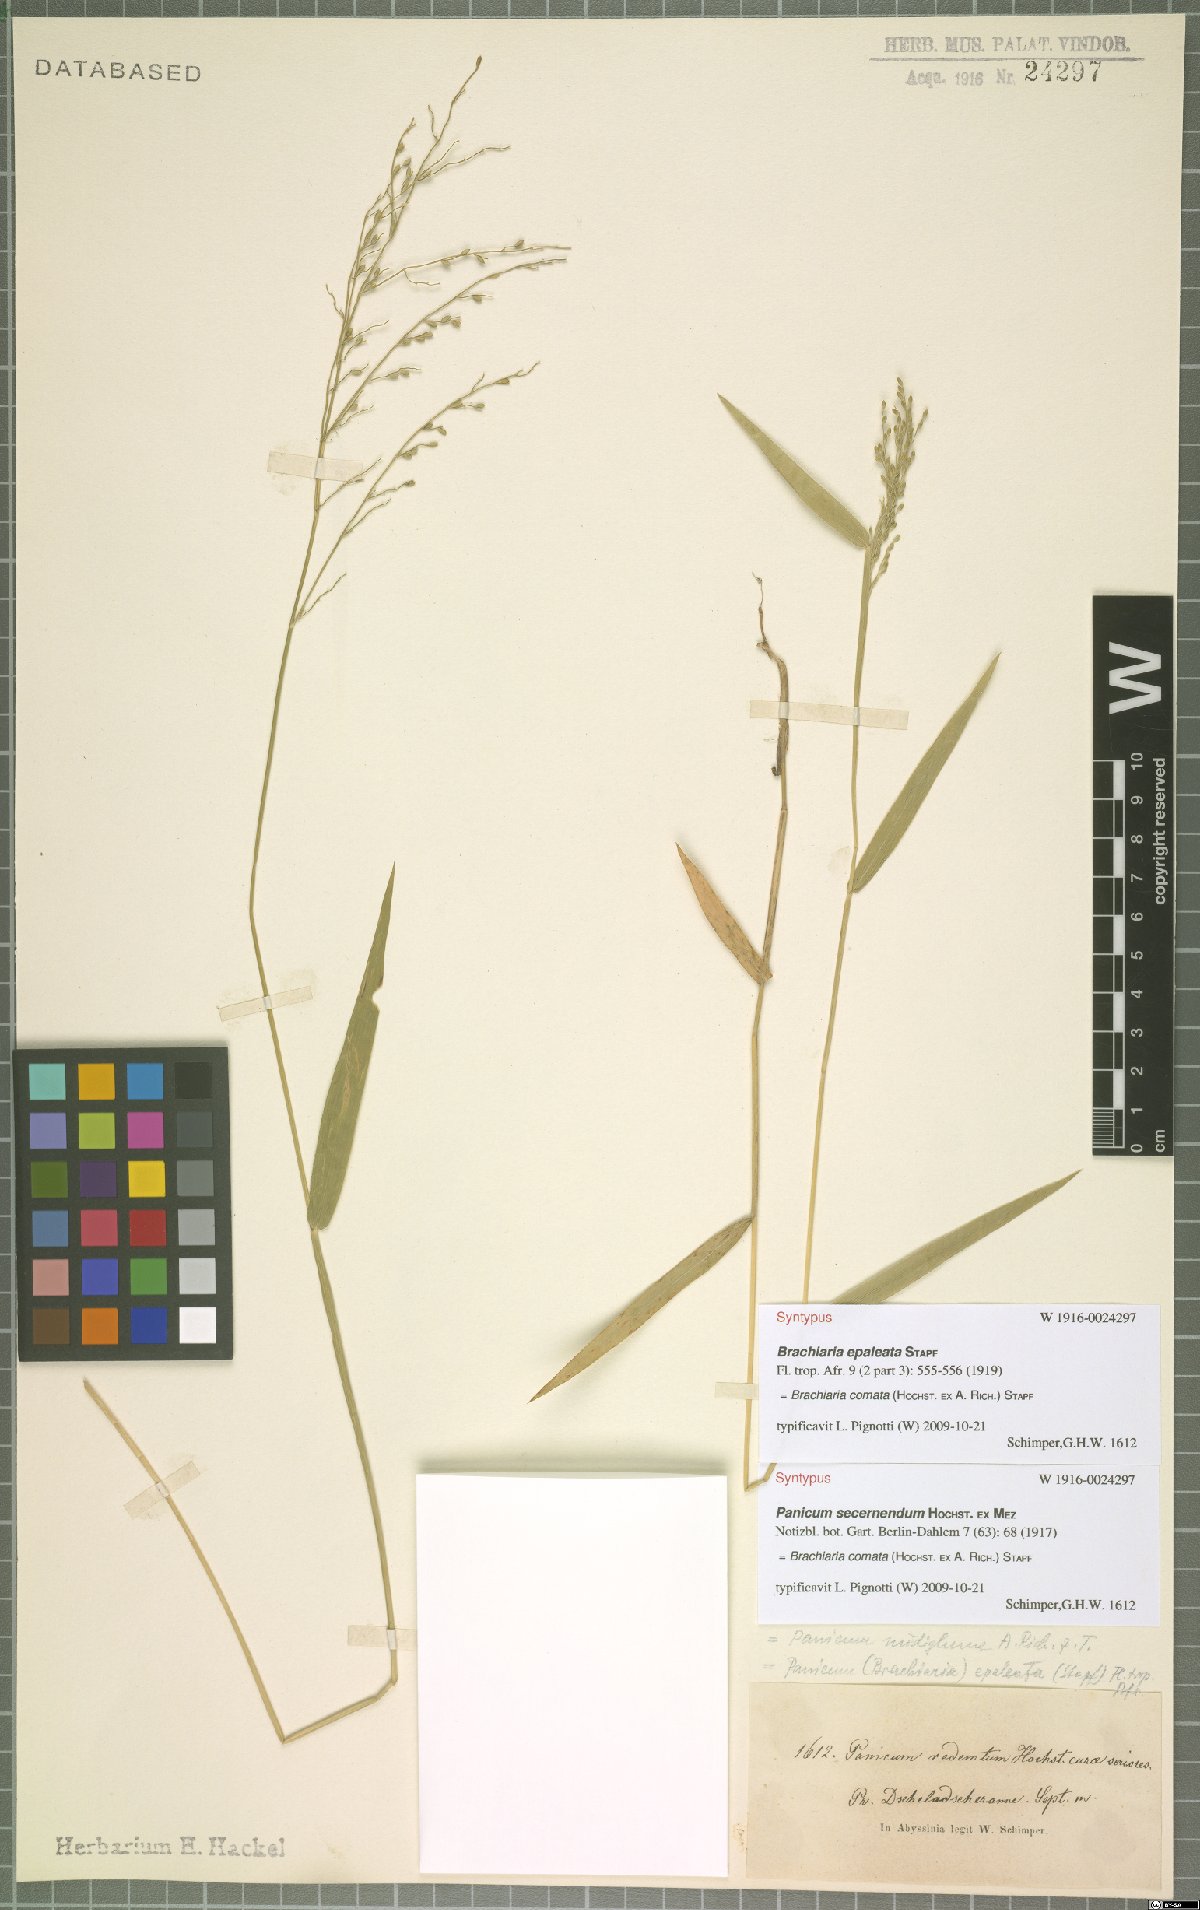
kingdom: Plantae
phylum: Tracheophyta
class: Liliopsida
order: Poales
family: Poaceae
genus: Urochloa
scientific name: Urochloa comata
